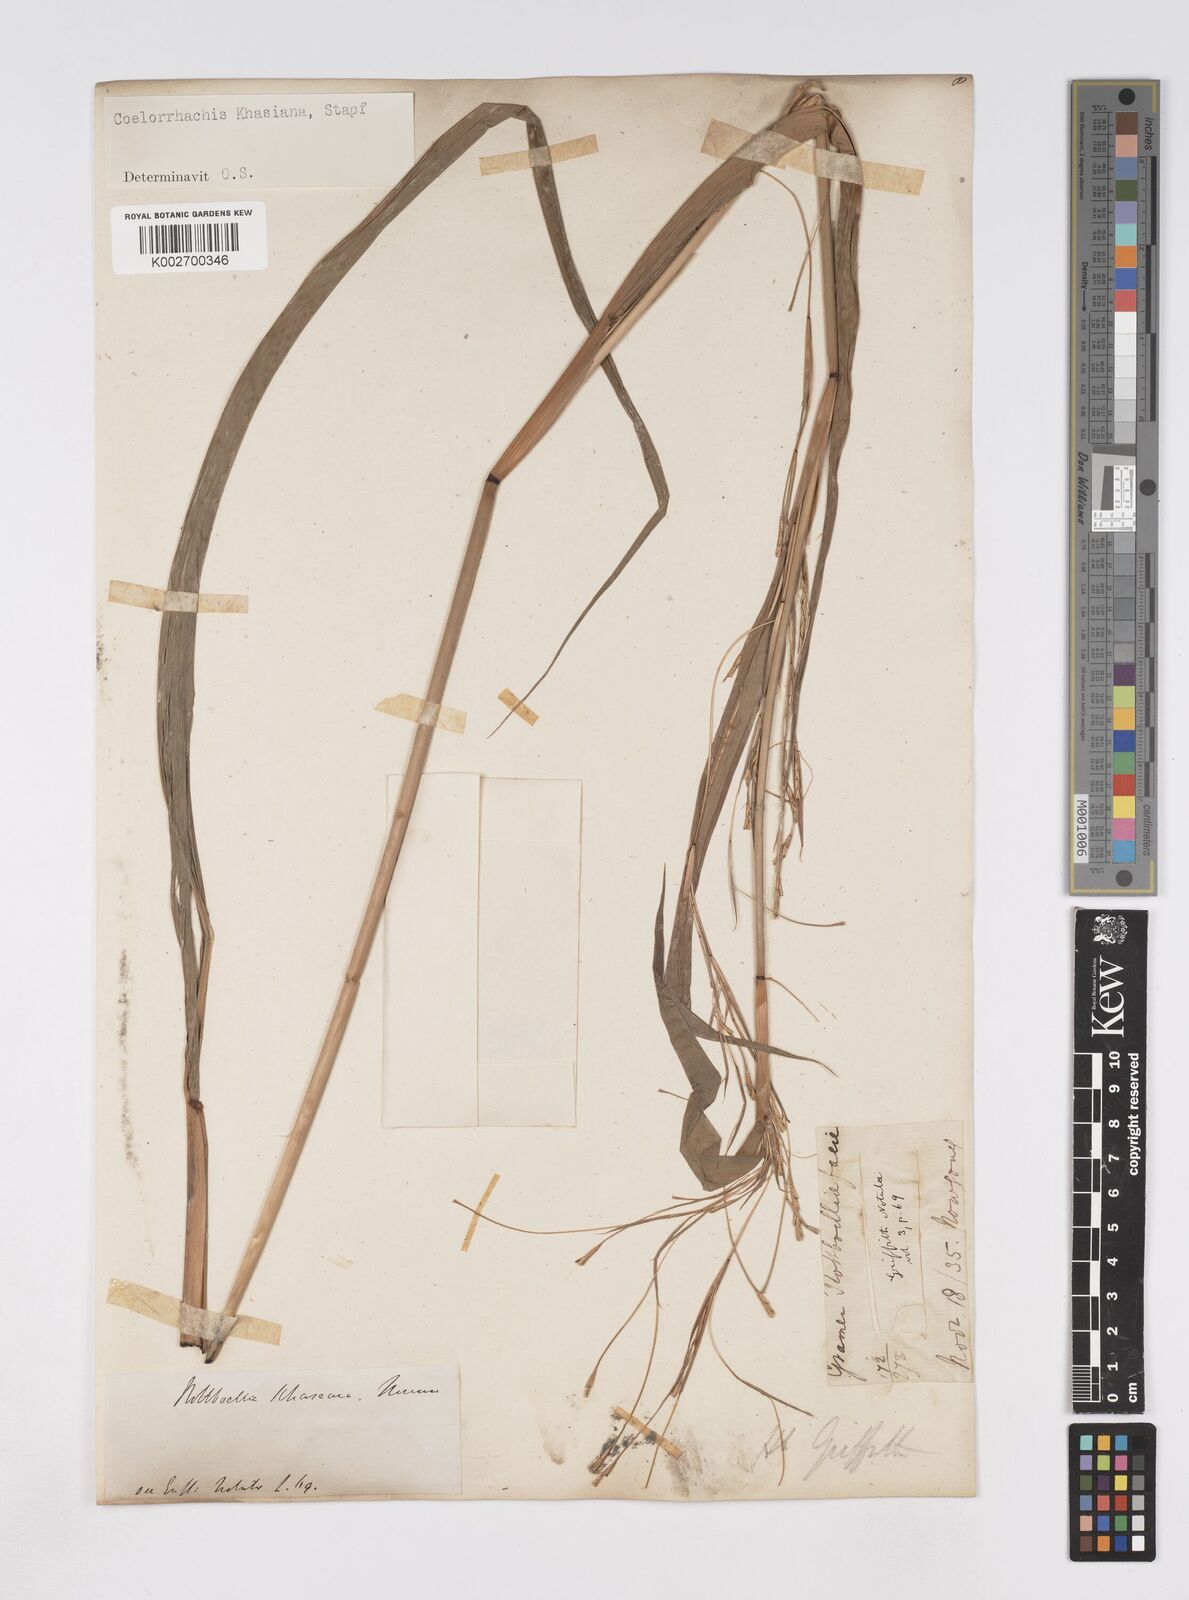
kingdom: Plantae
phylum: Tracheophyta
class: Liliopsida
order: Poales
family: Poaceae
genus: Rottboellia
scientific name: Rottboellia striata
